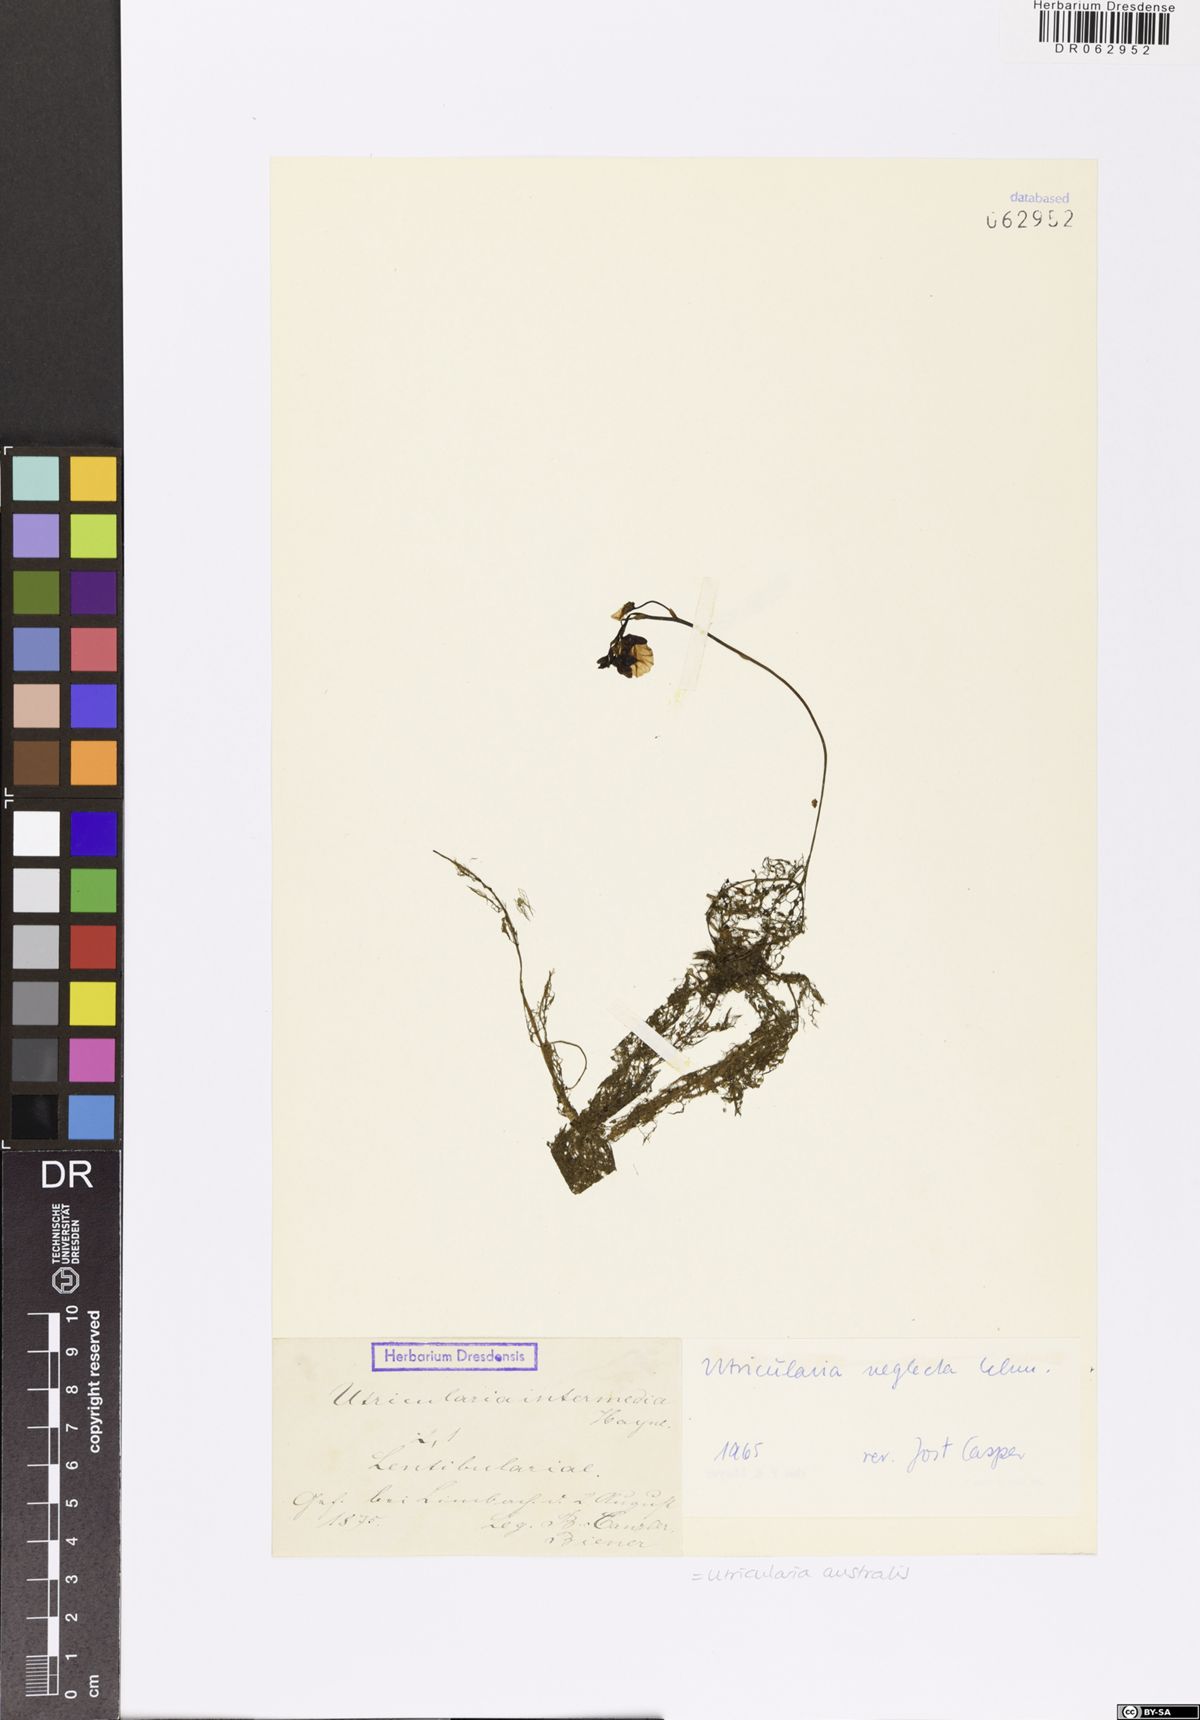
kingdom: Plantae
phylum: Tracheophyta
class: Magnoliopsida
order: Lamiales
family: Lentibulariaceae
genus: Utricularia
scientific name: Utricularia australis
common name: Bladderwort
